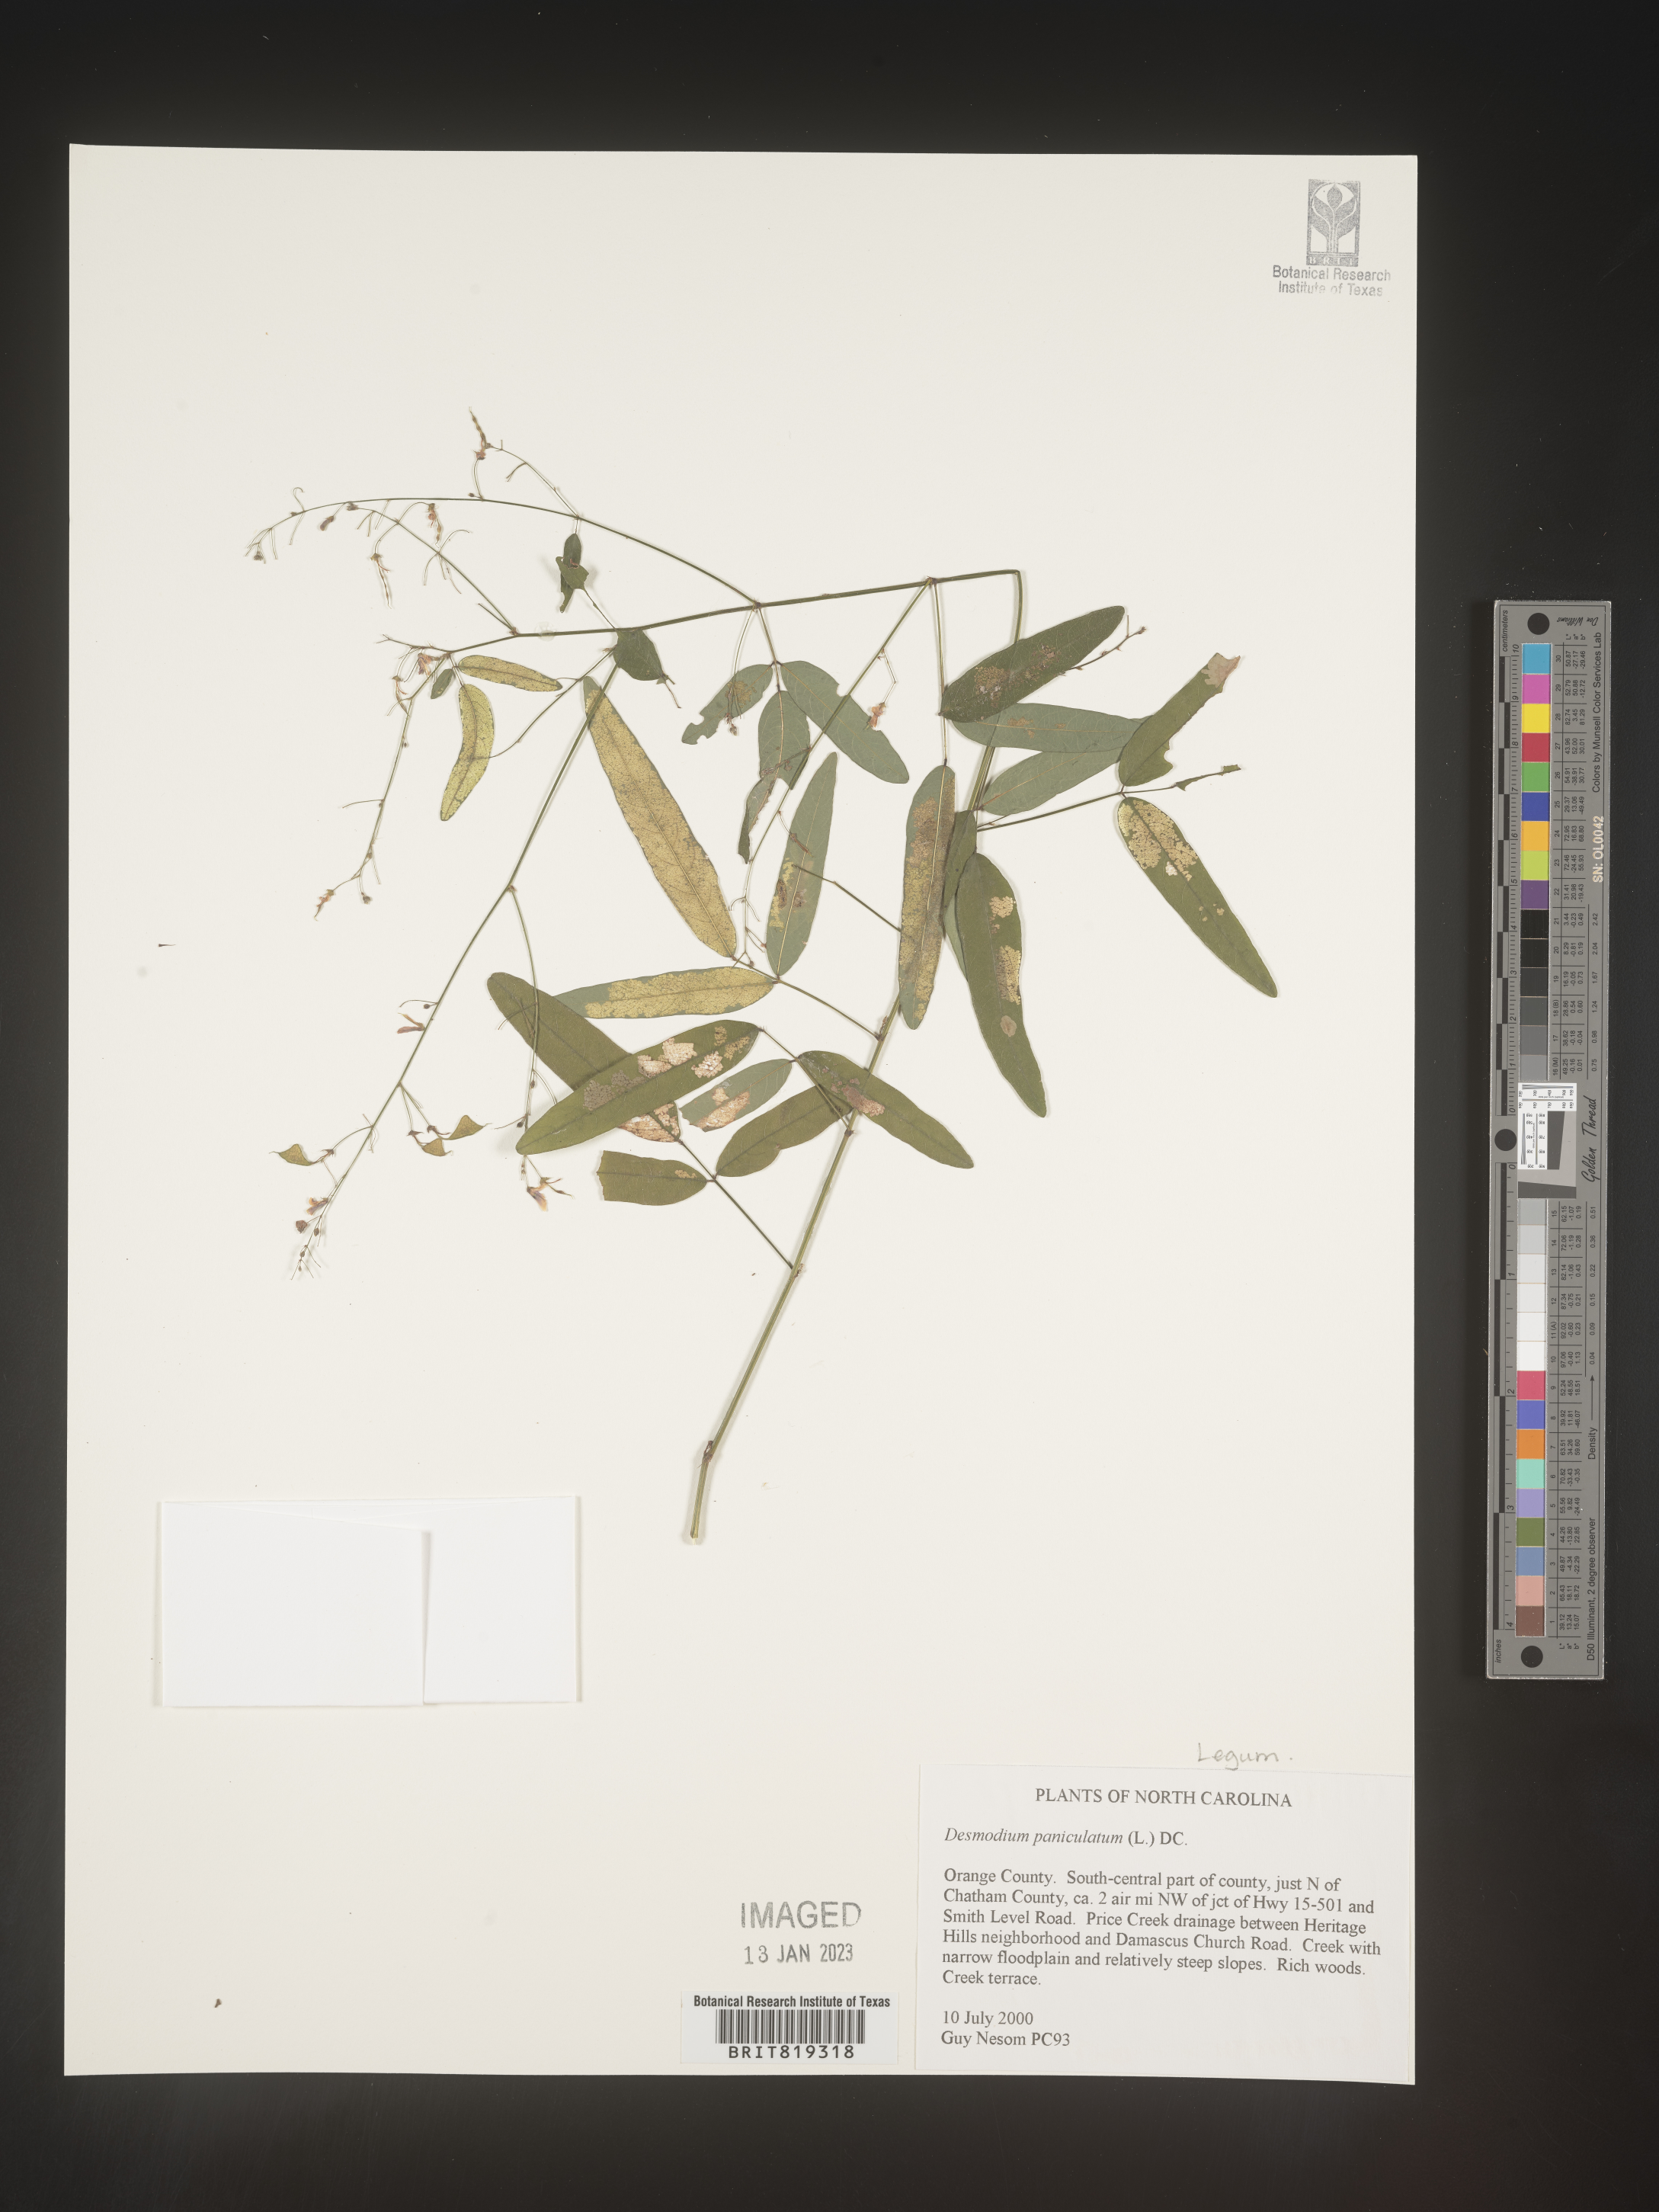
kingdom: Plantae
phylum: Tracheophyta
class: Magnoliopsida
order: Fabales
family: Fabaceae
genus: Desmodium
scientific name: Desmodium paniculatum
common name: Panicled tick-clover
